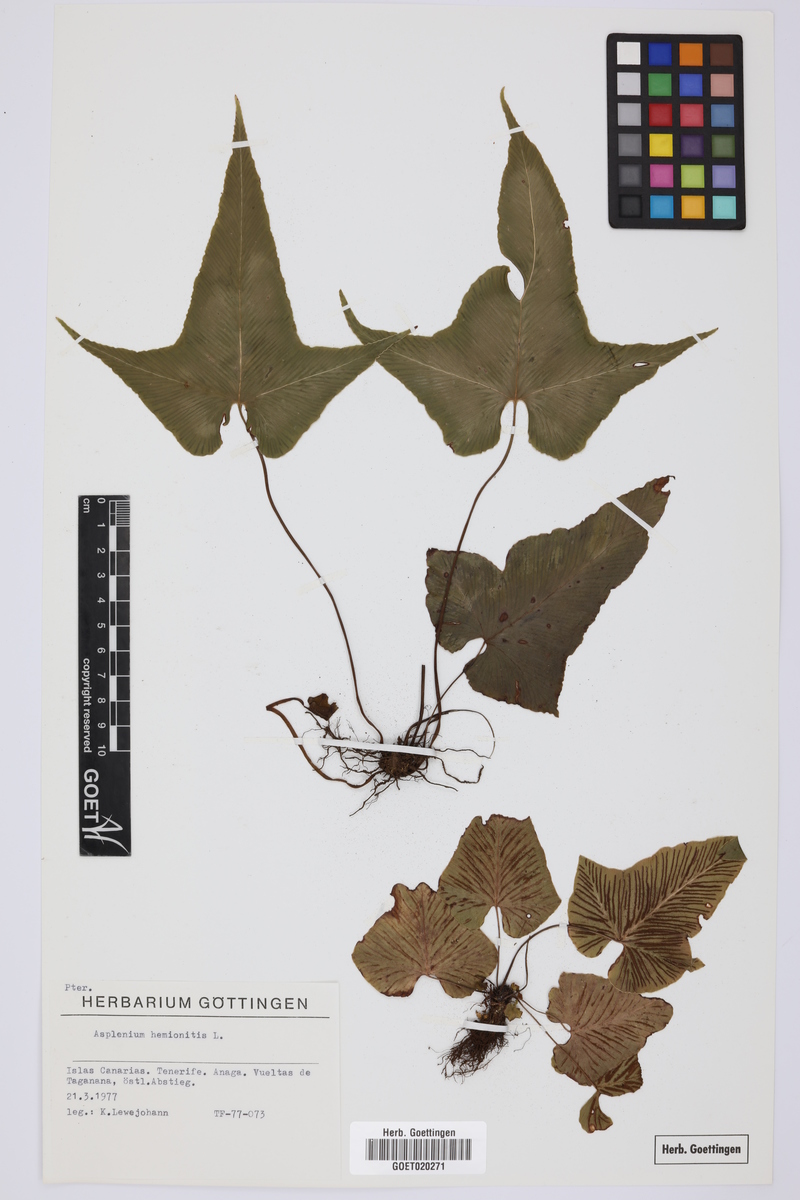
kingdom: Plantae
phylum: Tracheophyta
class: Polypodiopsida
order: Polypodiales
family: Aspleniaceae
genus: Asplenium
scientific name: Asplenium hemionitis
